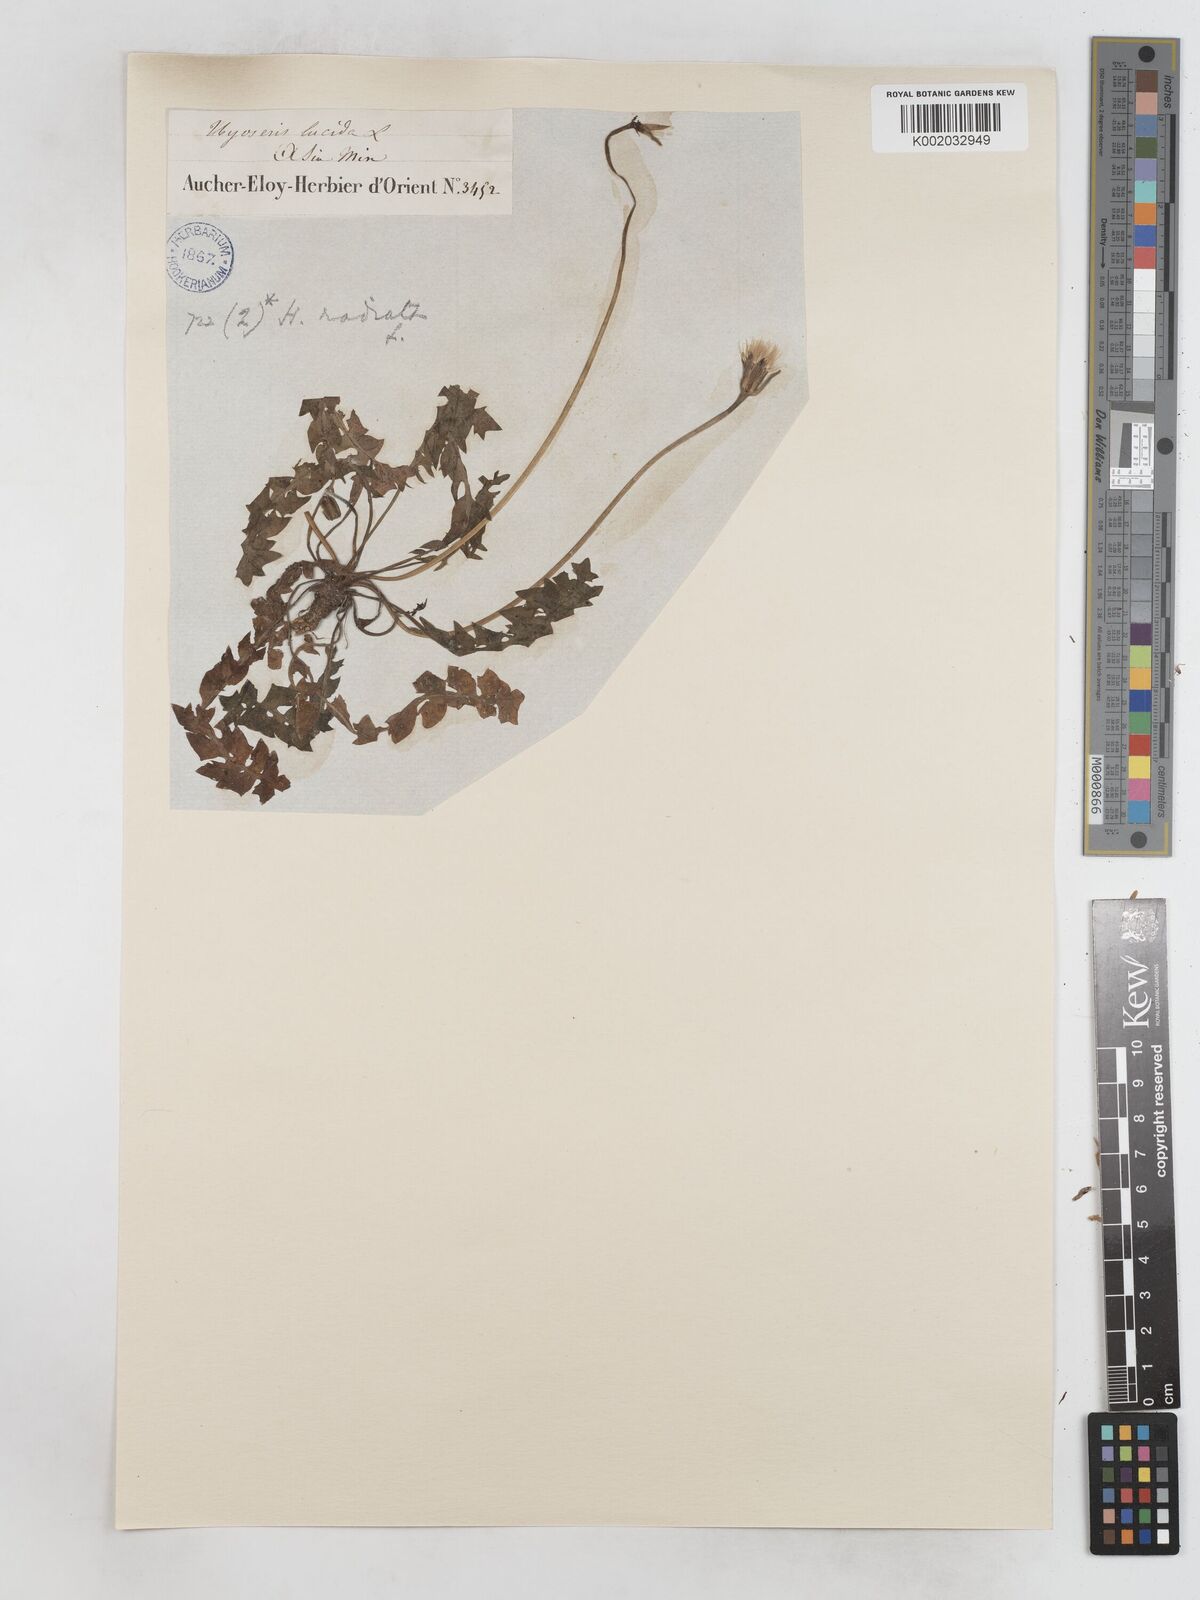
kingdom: Plantae
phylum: Tracheophyta
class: Magnoliopsida
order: Asterales
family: Asteraceae
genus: Hyoseris
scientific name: Hyoseris radiata
